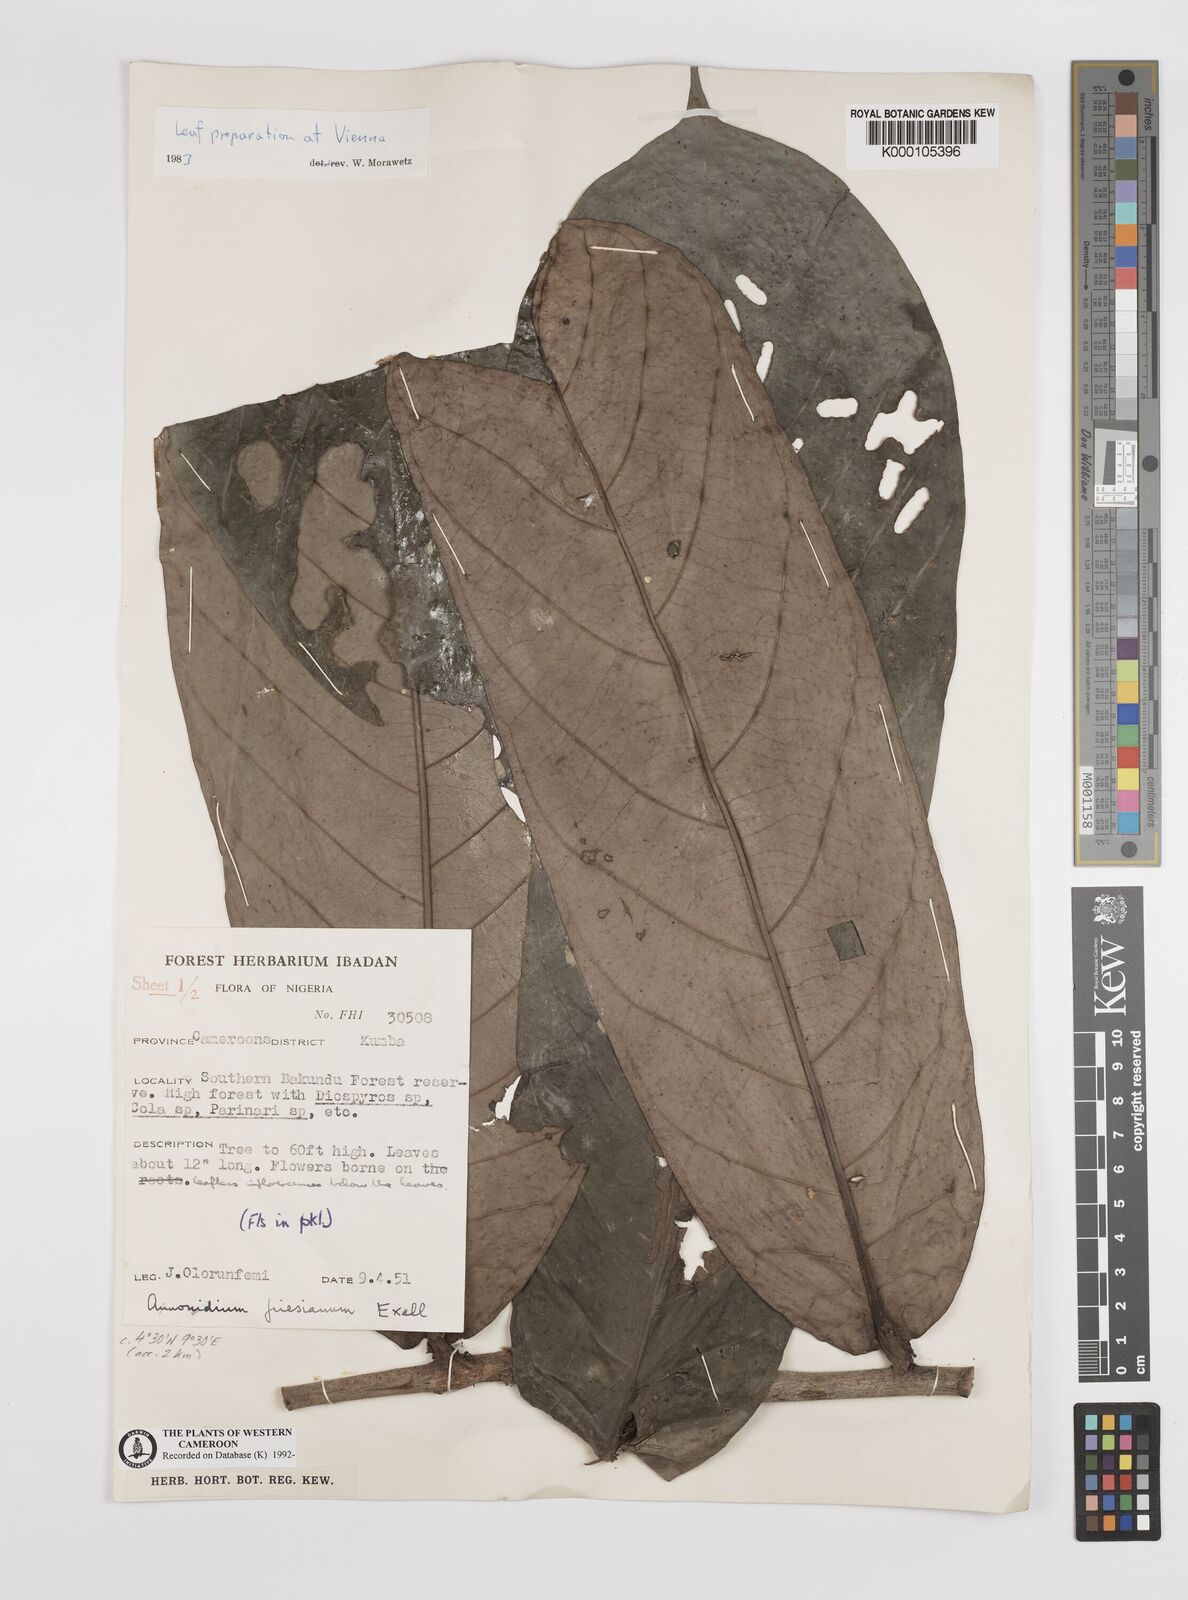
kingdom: Plantae
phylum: Tracheophyta
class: Magnoliopsida
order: Magnoliales
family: Annonaceae
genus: Anonidium
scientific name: Anonidium mannii
